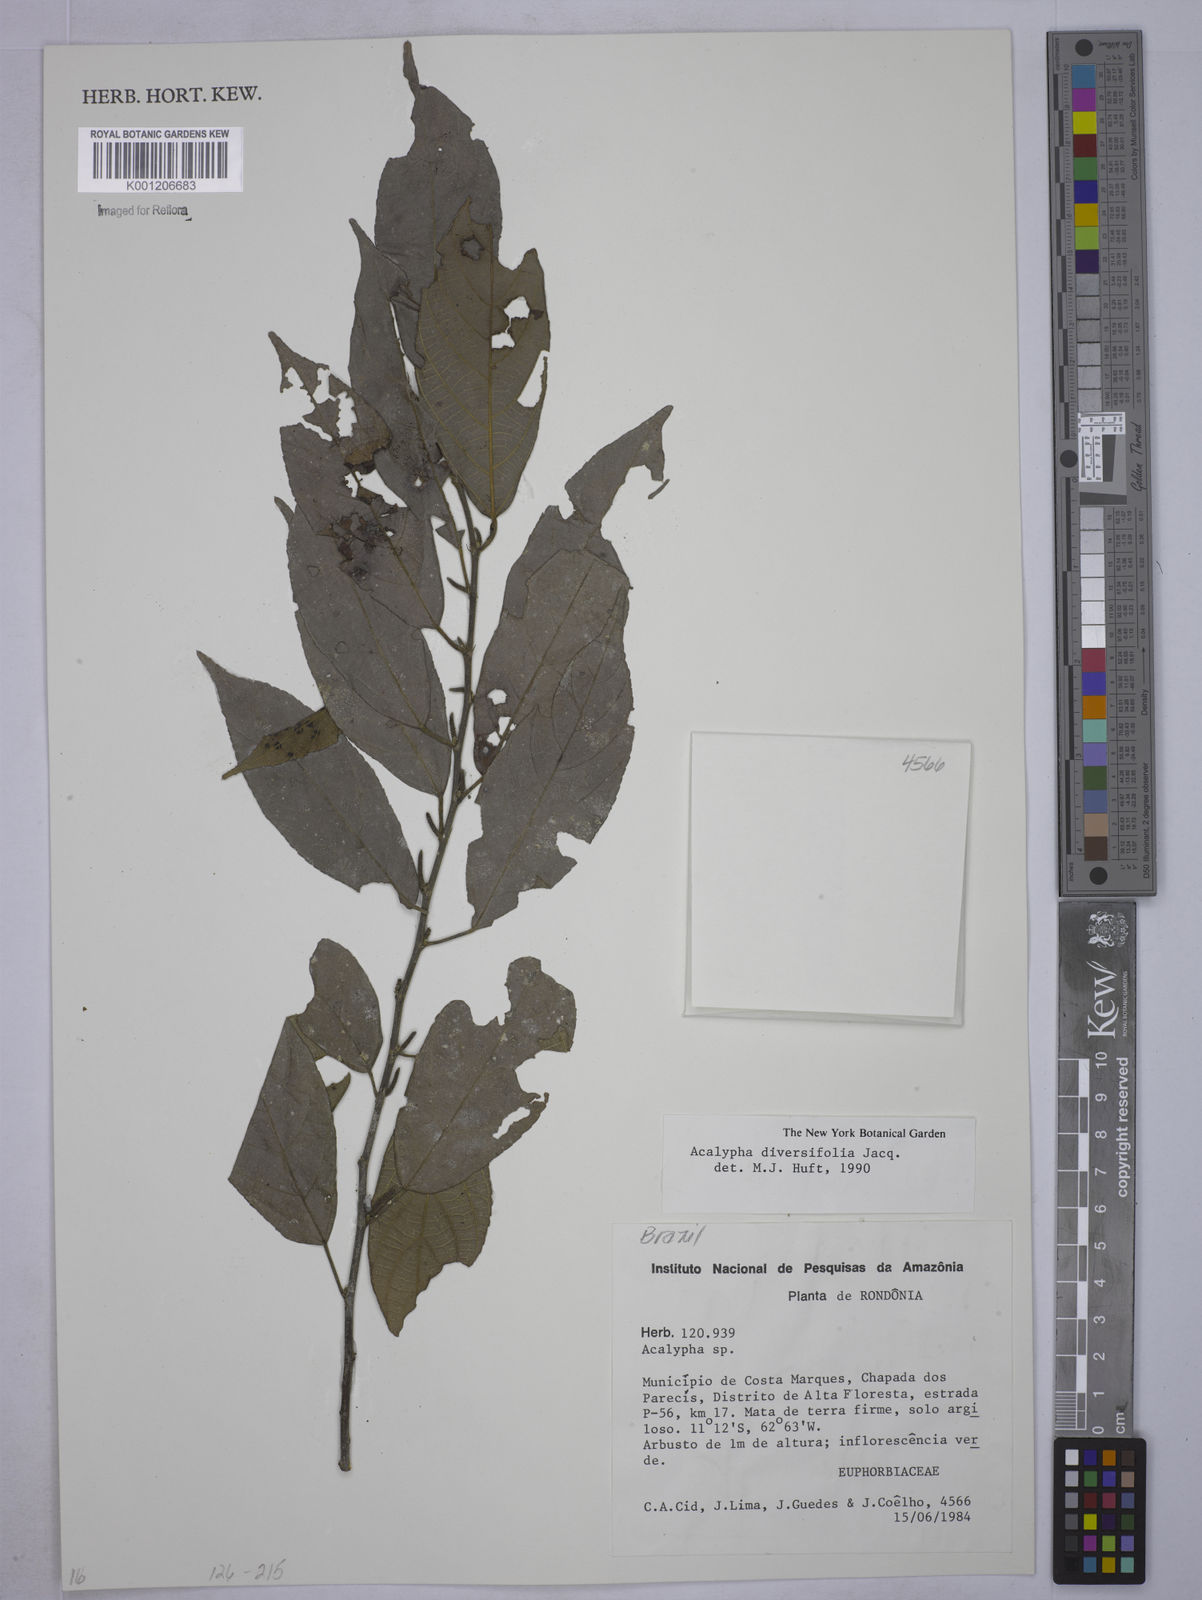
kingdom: Plantae
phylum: Tracheophyta
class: Magnoliopsida
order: Malpighiales
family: Euphorbiaceae
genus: Acalypha
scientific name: Acalypha diversifolia
